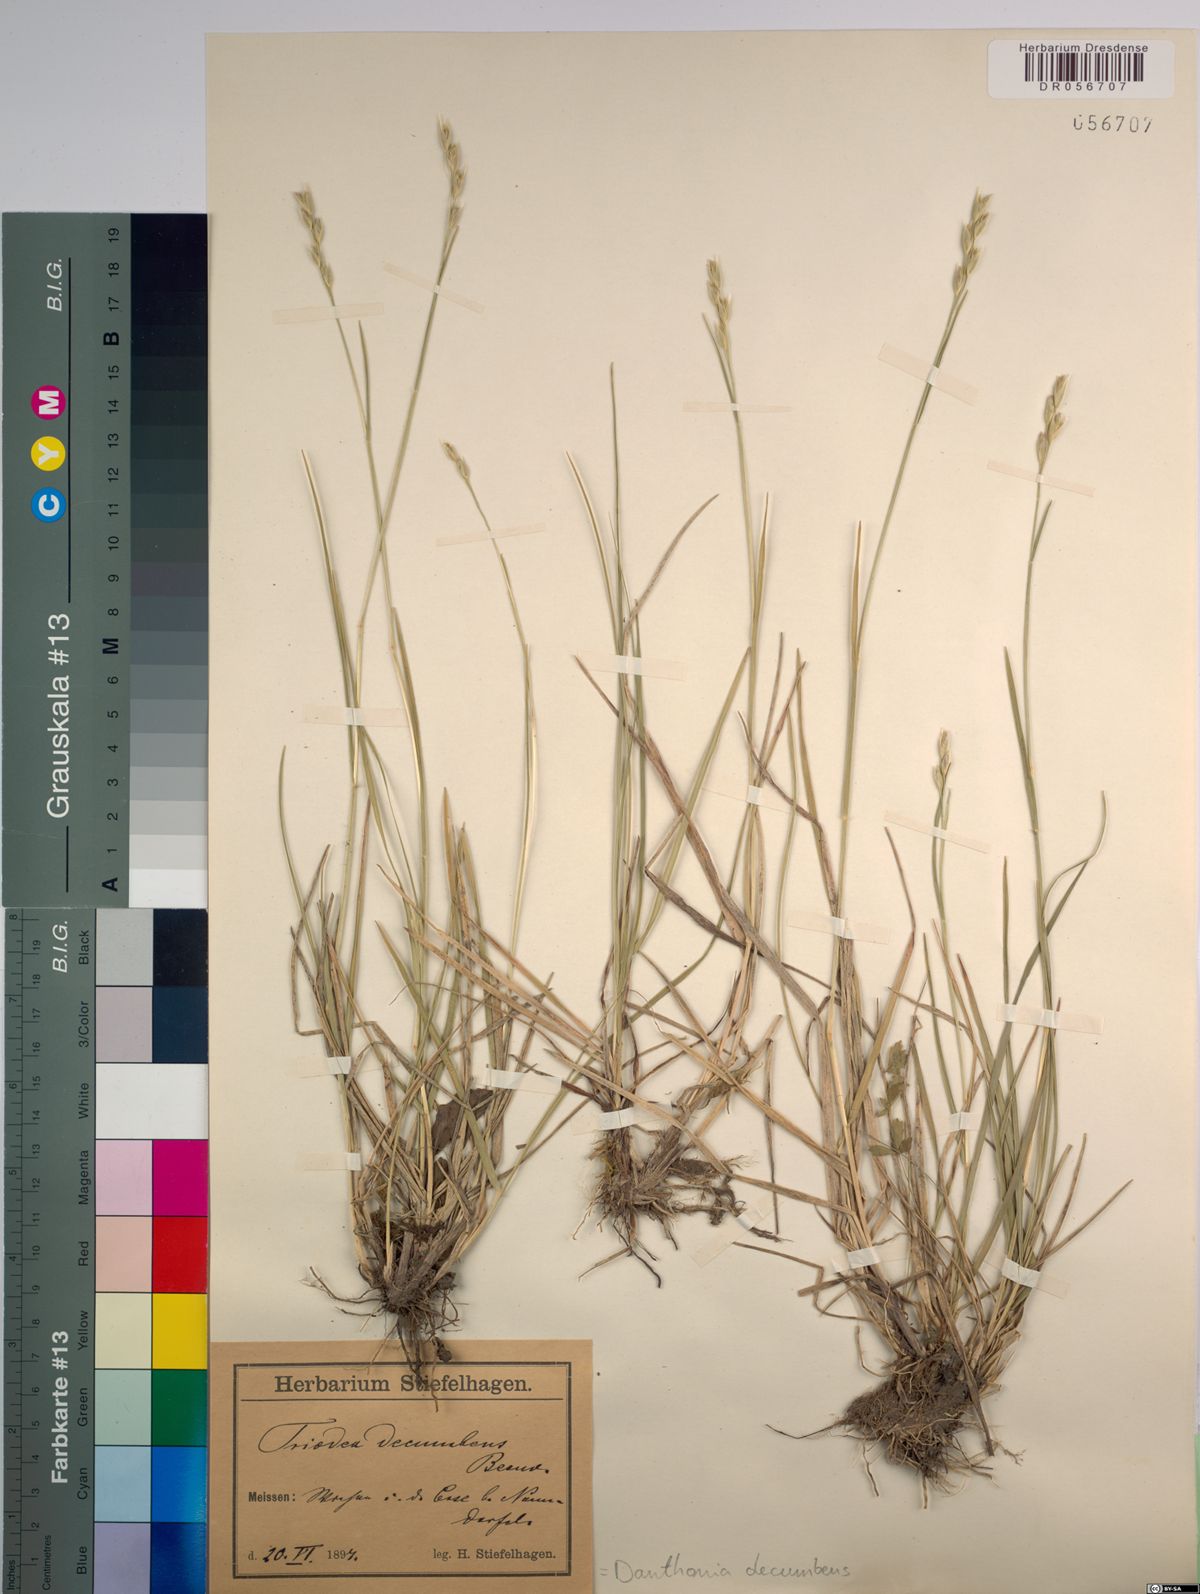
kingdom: Plantae
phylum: Tracheophyta
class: Liliopsida
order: Poales
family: Poaceae
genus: Danthonia
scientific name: Danthonia decumbens
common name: Common heathgrass
